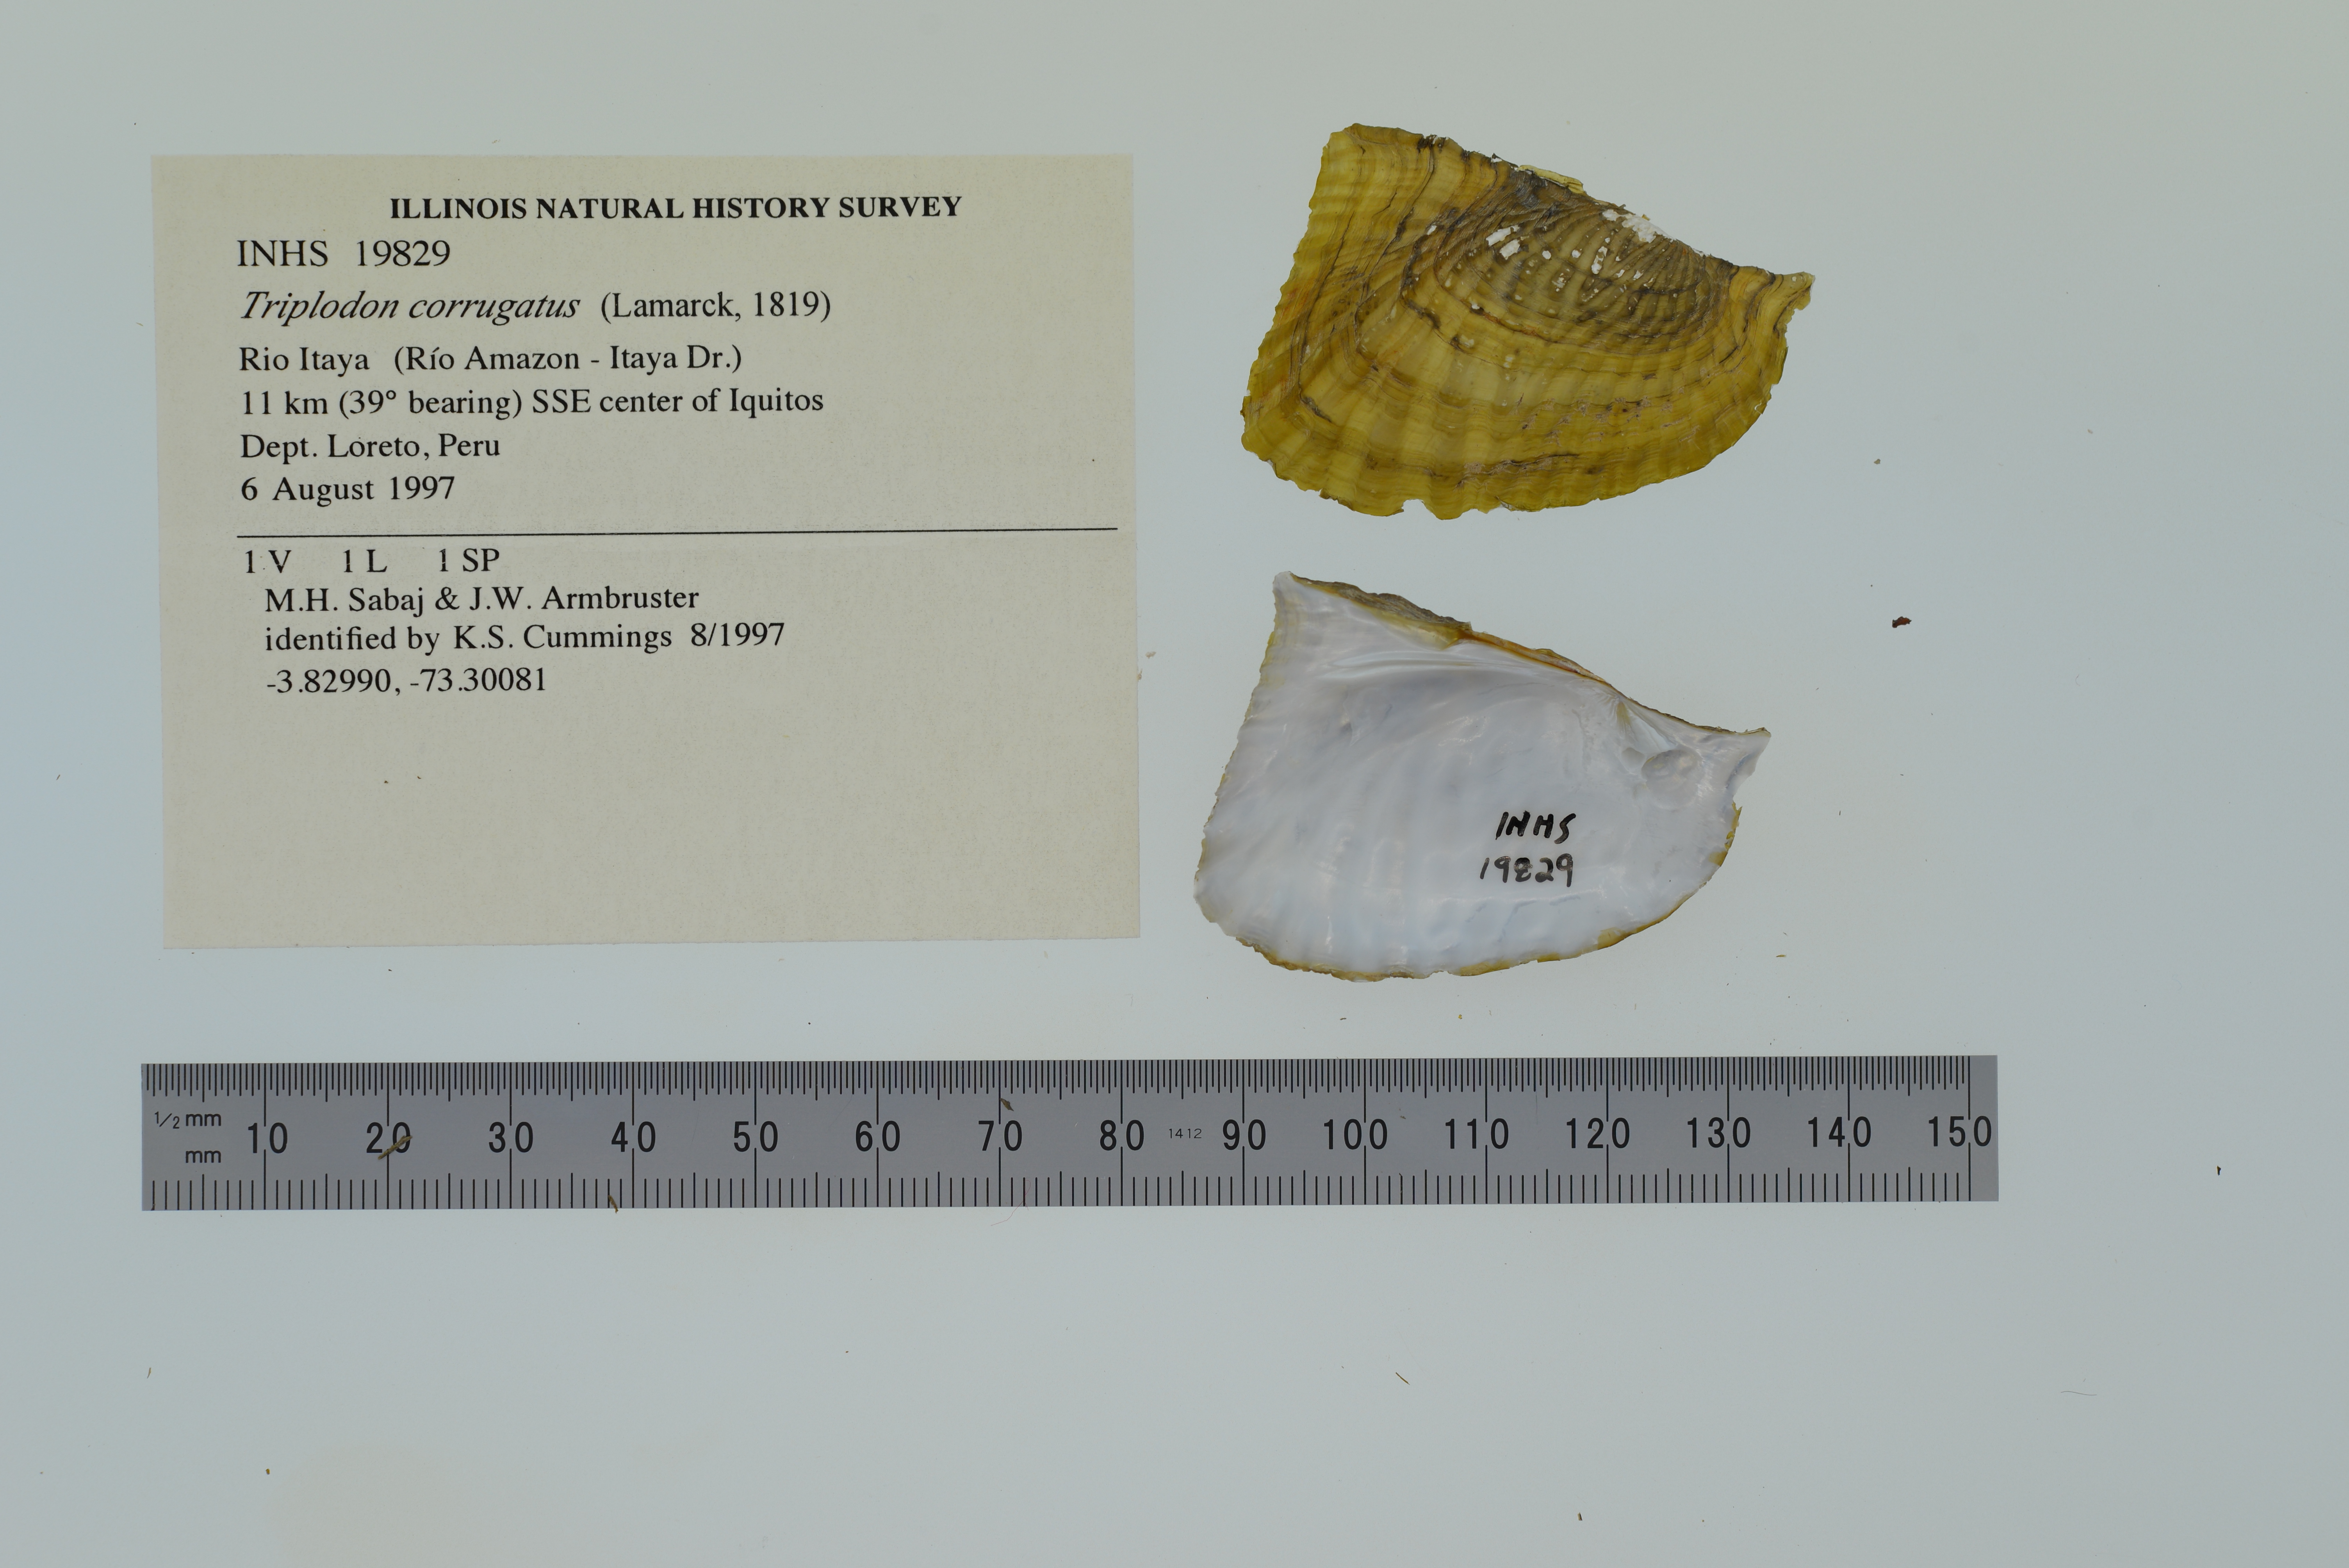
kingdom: Animalia
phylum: Mollusca
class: Bivalvia
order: Unionida
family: Hyriidae
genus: Triplodon
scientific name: Triplodon corrugatus
